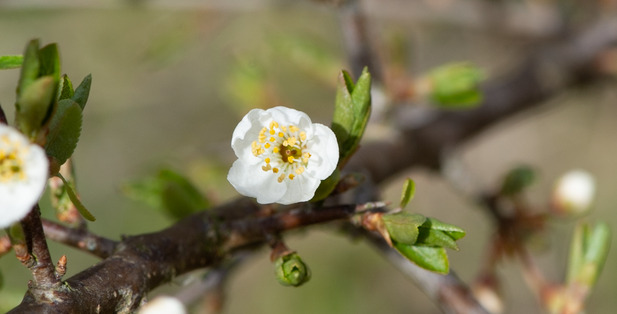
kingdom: Plantae
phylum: Tracheophyta
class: Magnoliopsida
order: Rosales
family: Rosaceae
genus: Prunus
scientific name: Prunus cerasifera
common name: Mirabel
